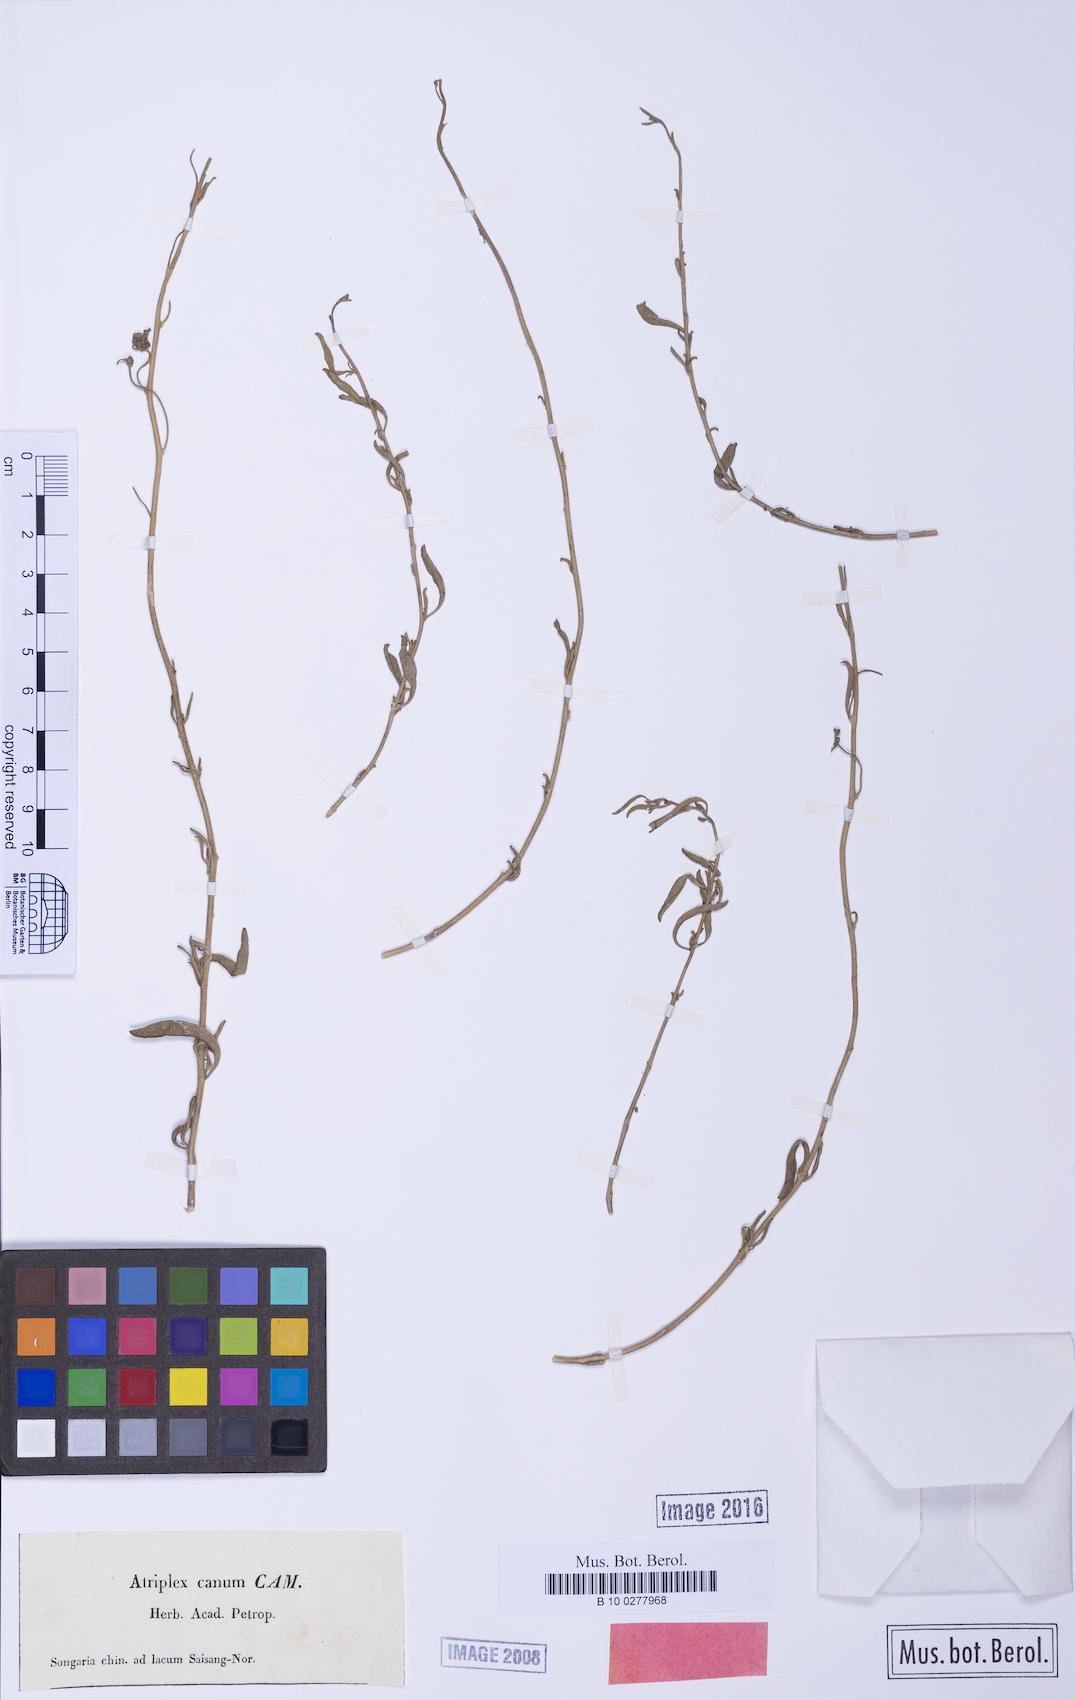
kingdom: Plantae
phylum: Tracheophyta
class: Magnoliopsida
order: Caryophyllales
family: Amaranthaceae
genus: Atriplex
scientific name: Atriplex cana
